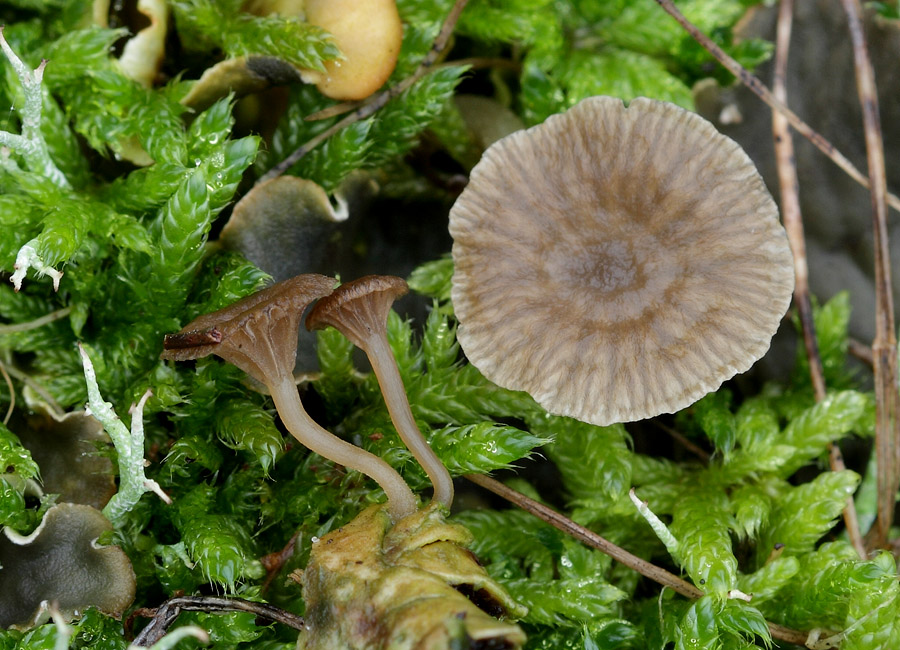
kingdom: Fungi
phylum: Basidiomycota
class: Agaricomycetes
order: Agaricales
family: Hygrophoraceae
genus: Arrhenia
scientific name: Arrhenia peltigerina
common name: skjoldlav-fontænehat
